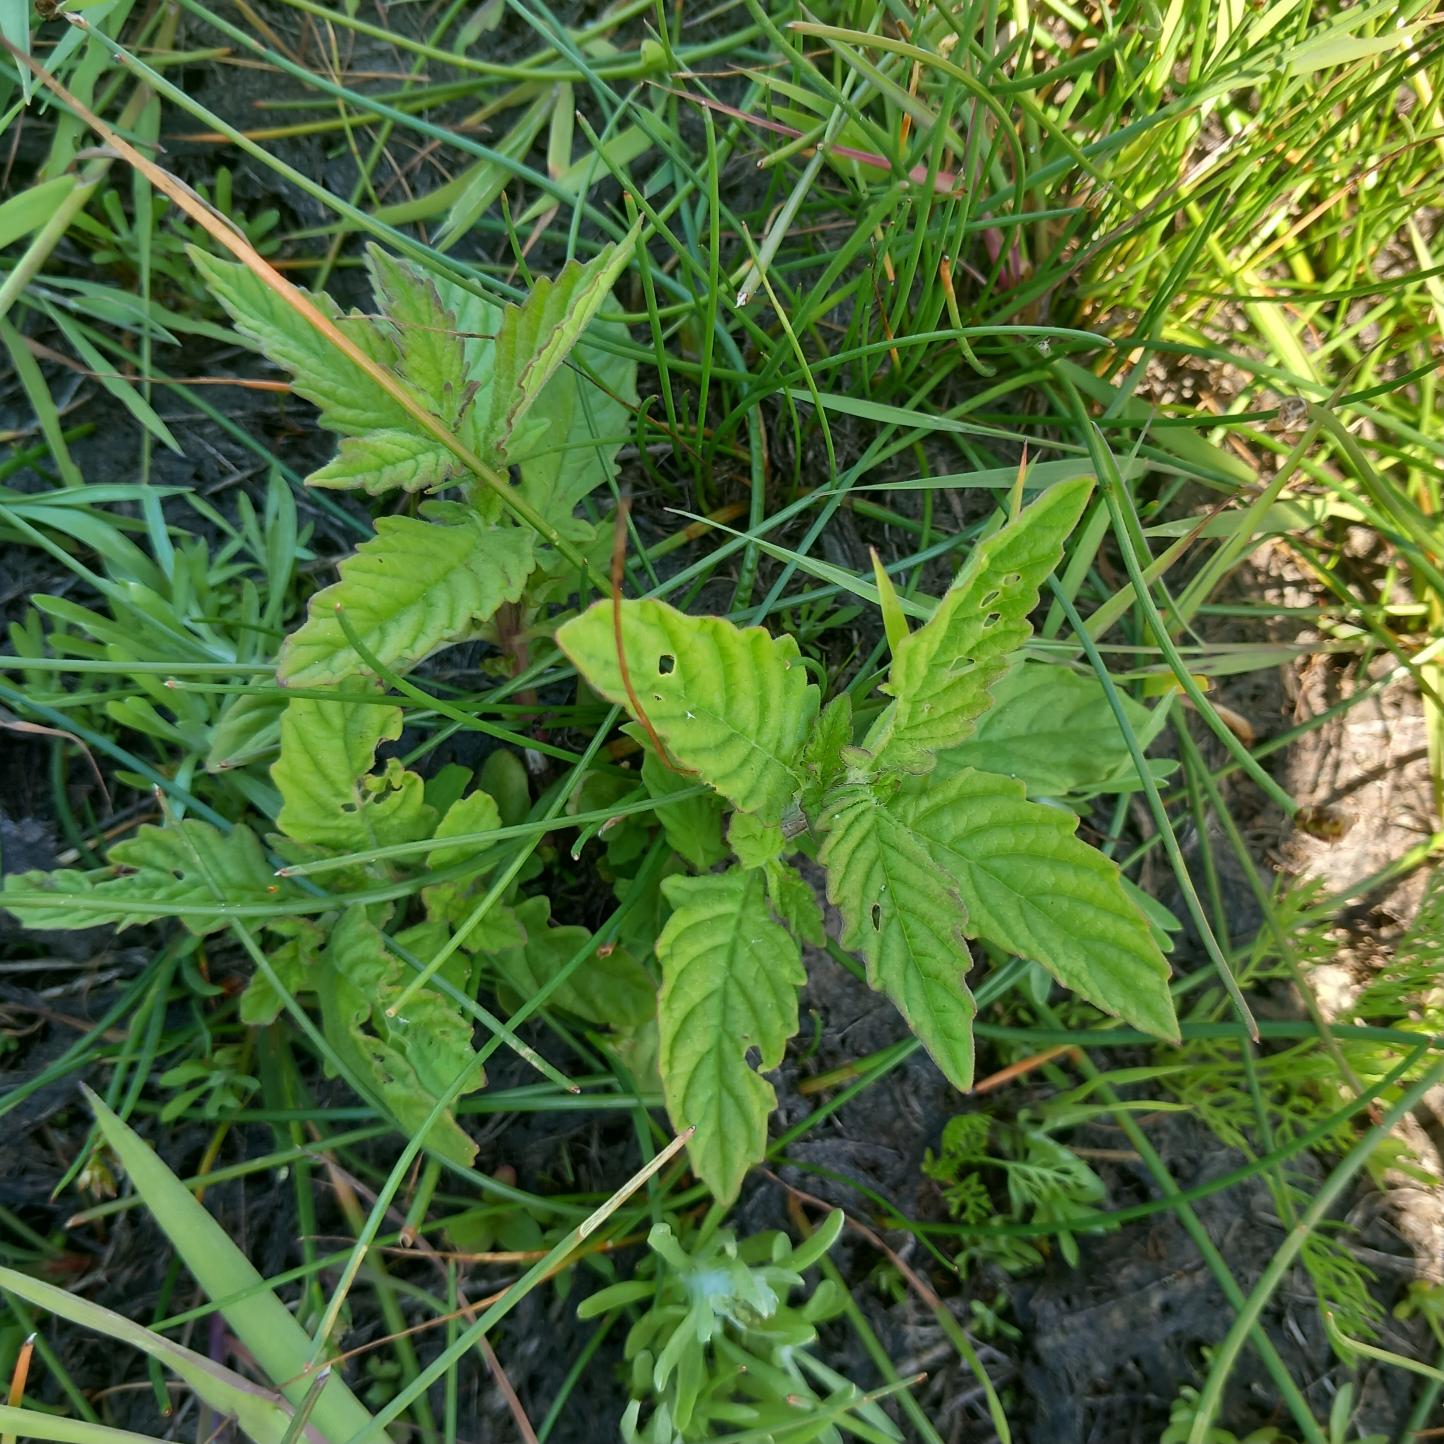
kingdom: Plantae
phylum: Tracheophyta
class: Magnoliopsida
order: Lamiales
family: Lamiaceae
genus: Lycopus
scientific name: Lycopus europaeus
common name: Sværtevæld
